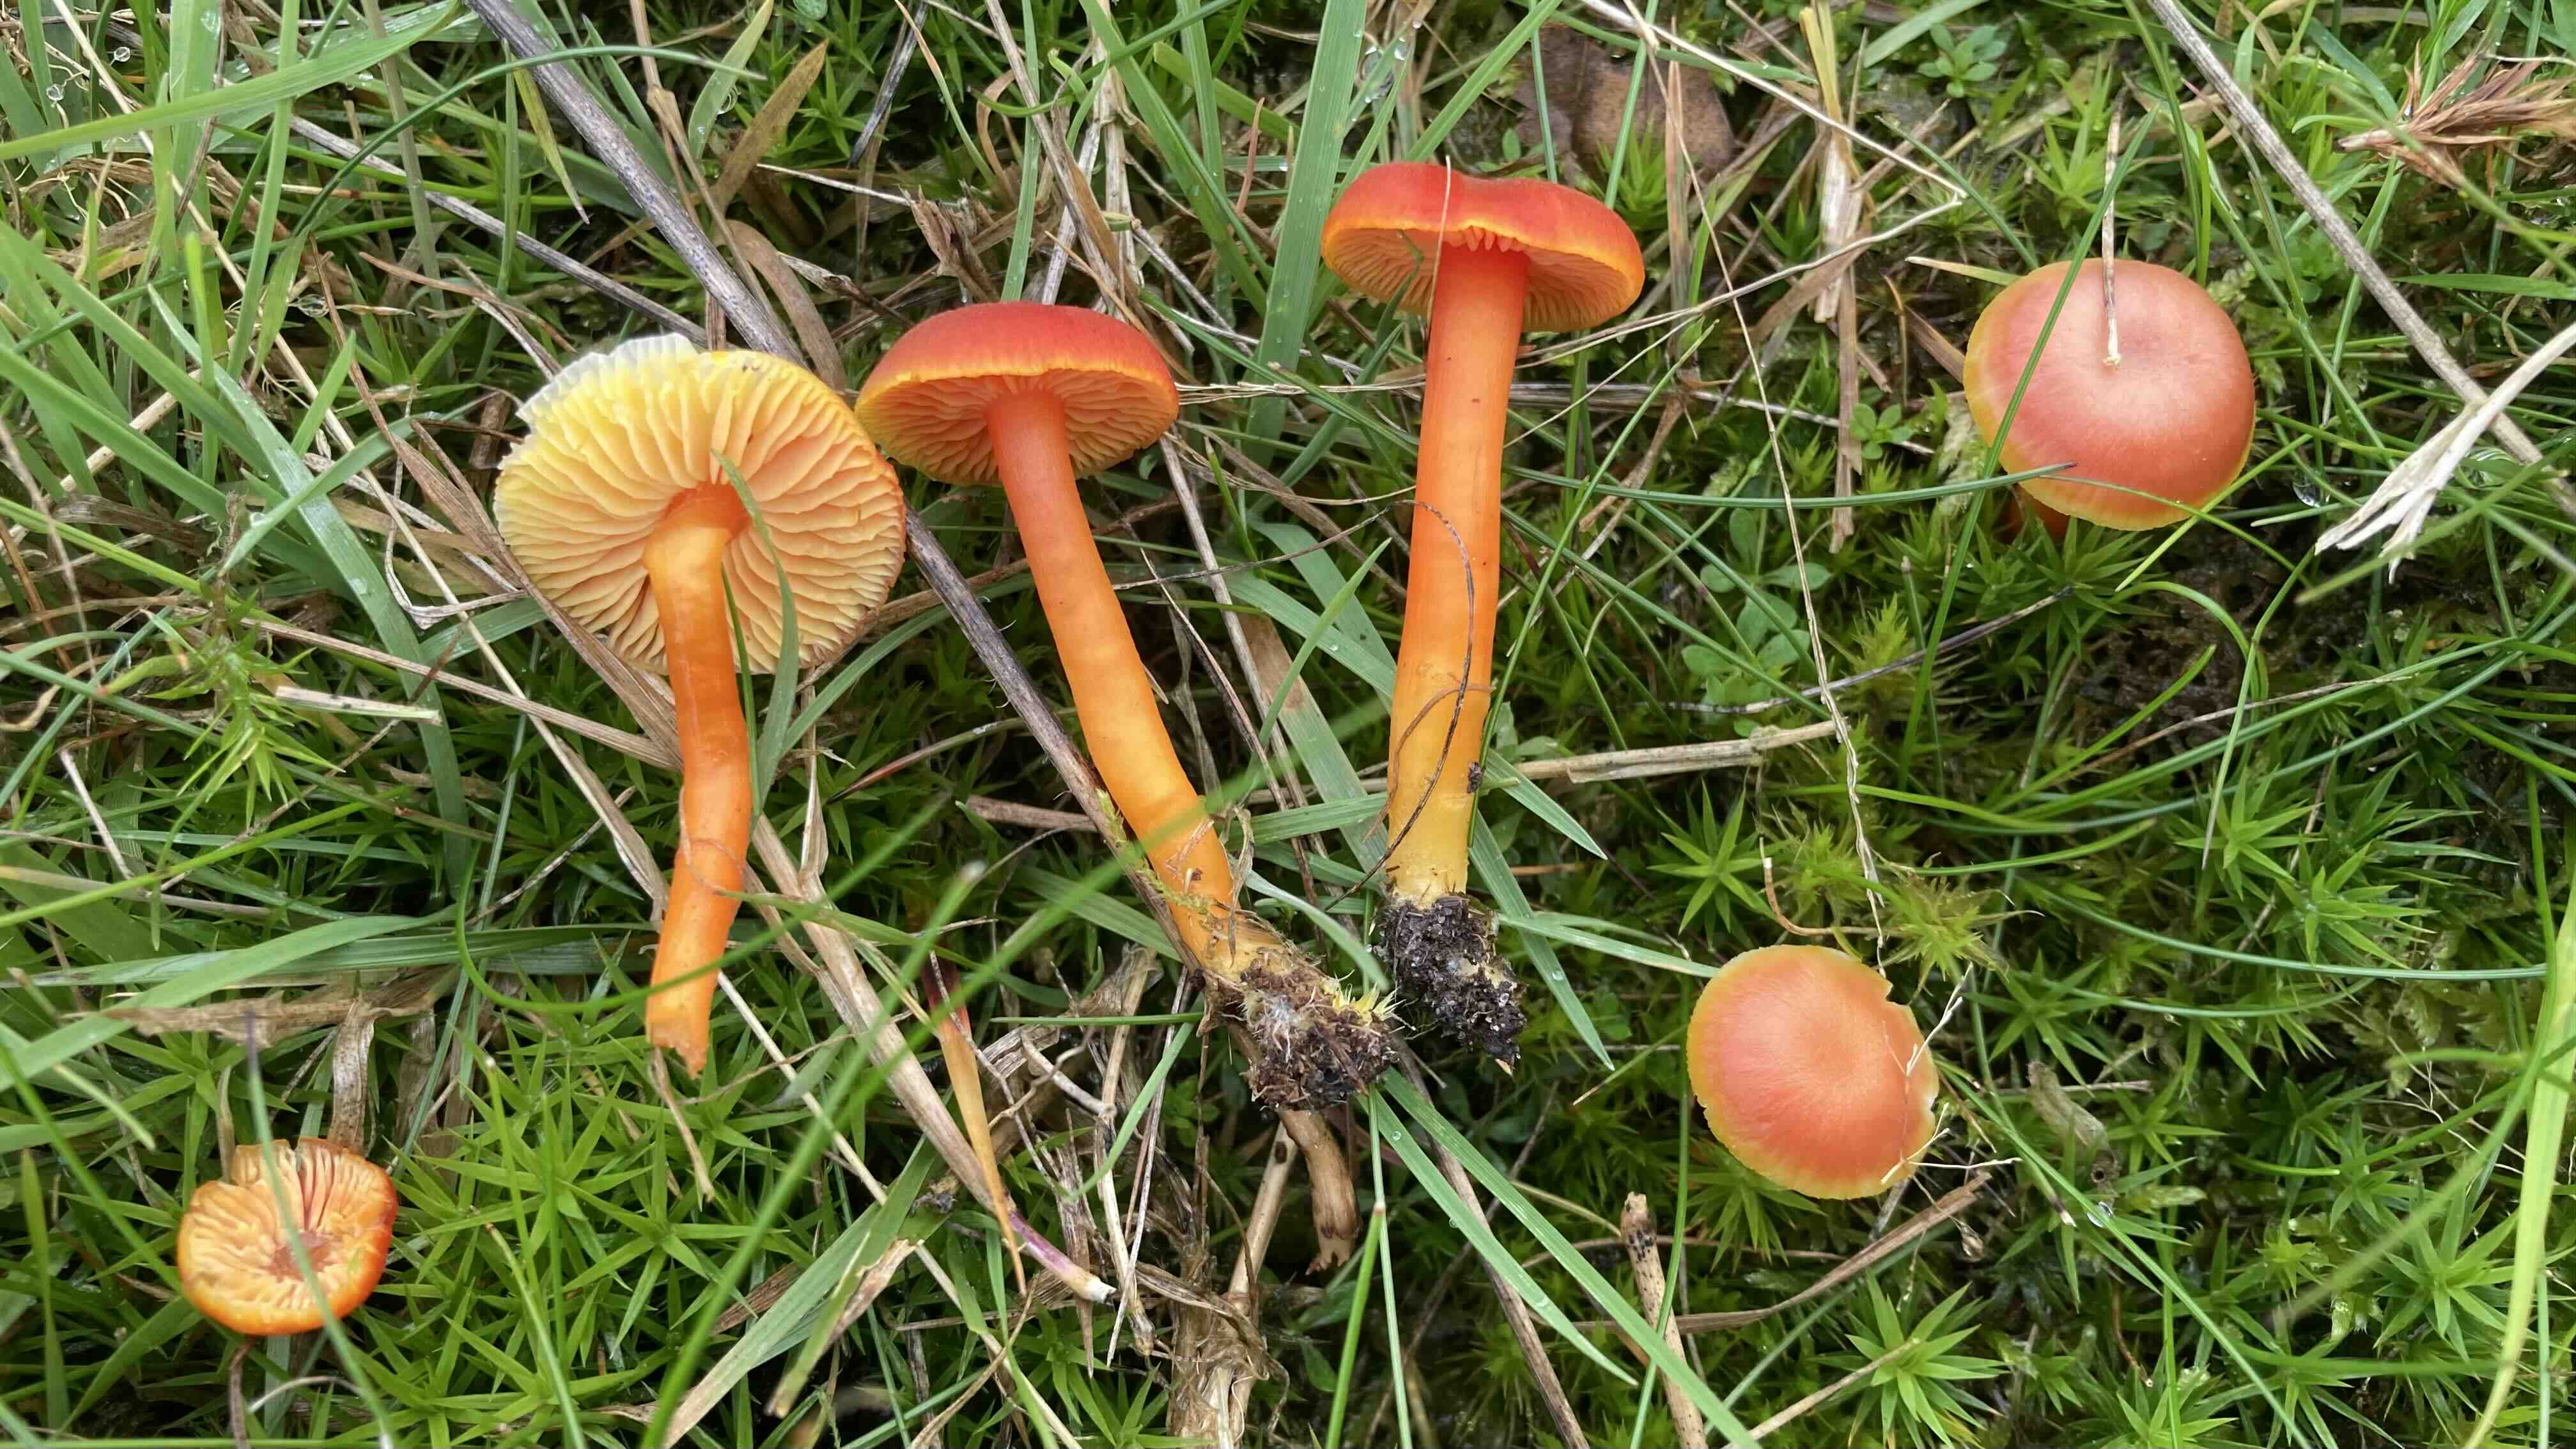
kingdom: Fungi
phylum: Basidiomycota
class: Agaricomycetes
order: Agaricales
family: Hygrophoraceae
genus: Hygrocybe
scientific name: Hygrocybe miniata
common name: mønje-vokshat
